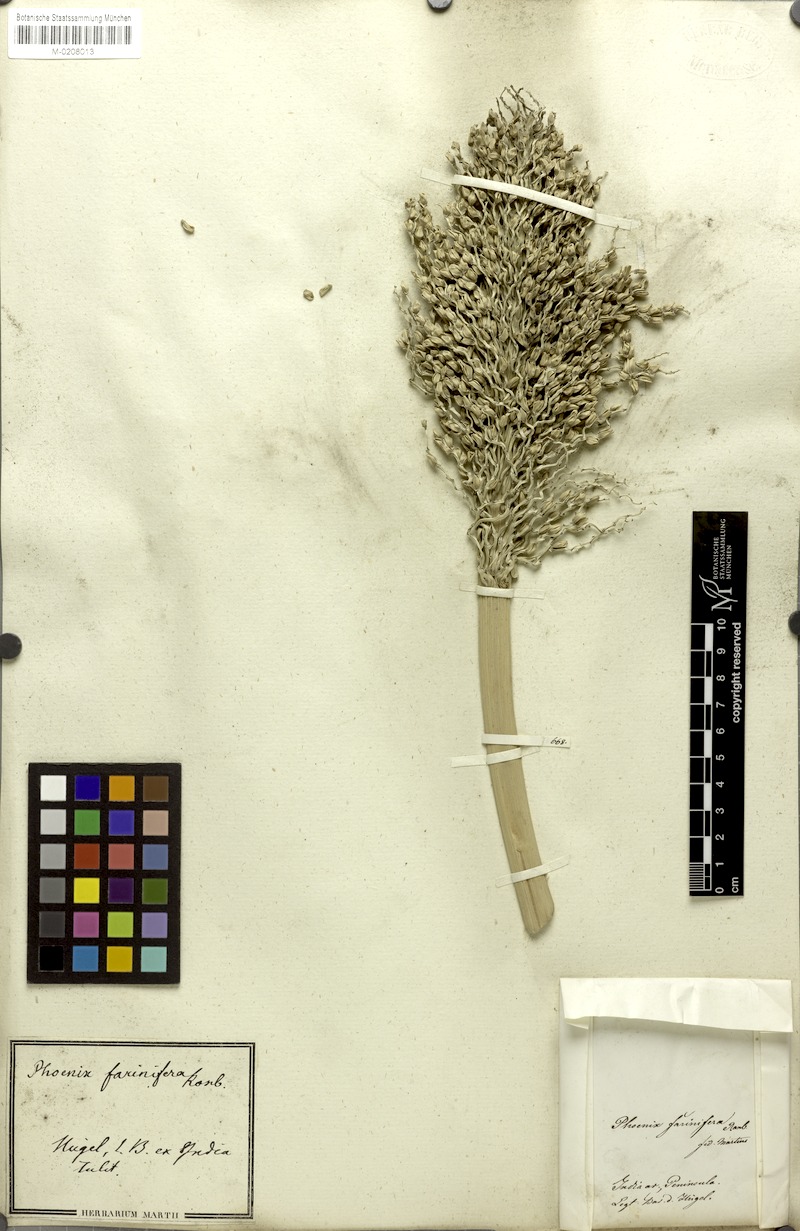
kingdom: Plantae
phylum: Tracheophyta
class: Liliopsida
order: Arecales
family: Arecaceae
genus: Phoenix
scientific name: Phoenix pusilla
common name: Flour palm
